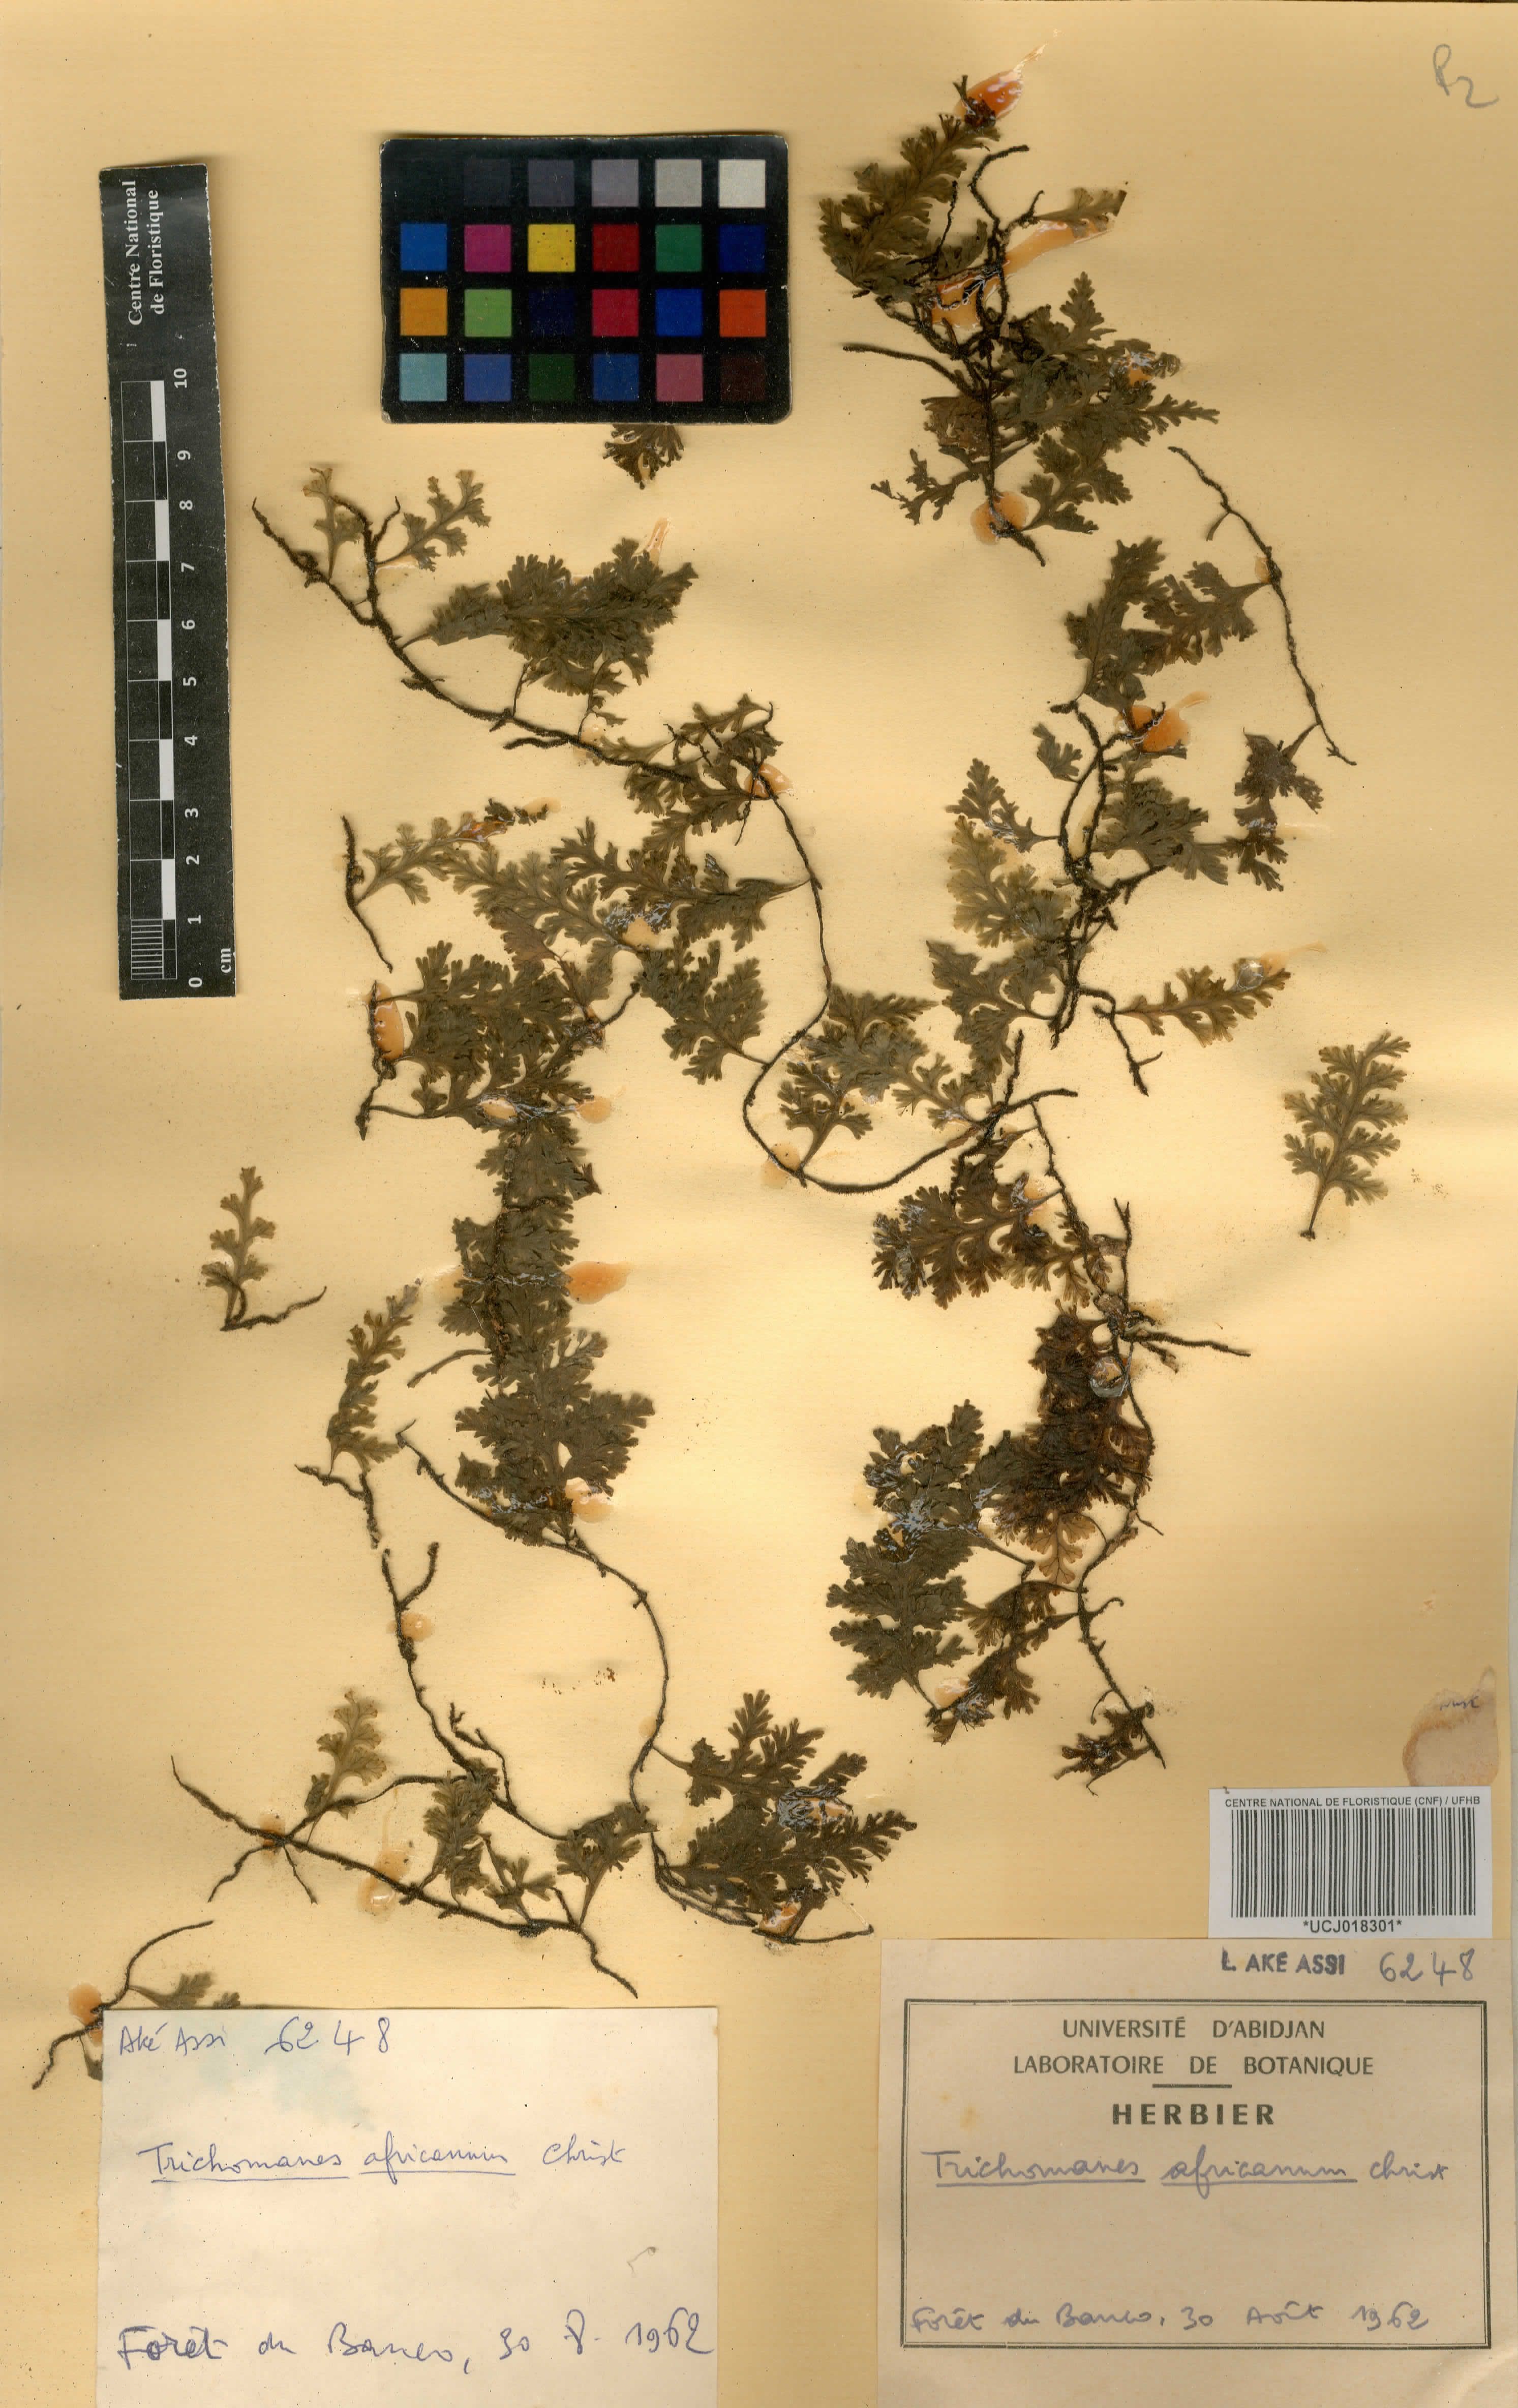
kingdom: Plantae
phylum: Tracheophyta
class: Polypodiopsida
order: Hymenophyllales
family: Hymenophyllaceae
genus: Crepidomanes
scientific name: Crepidomanes africanum
